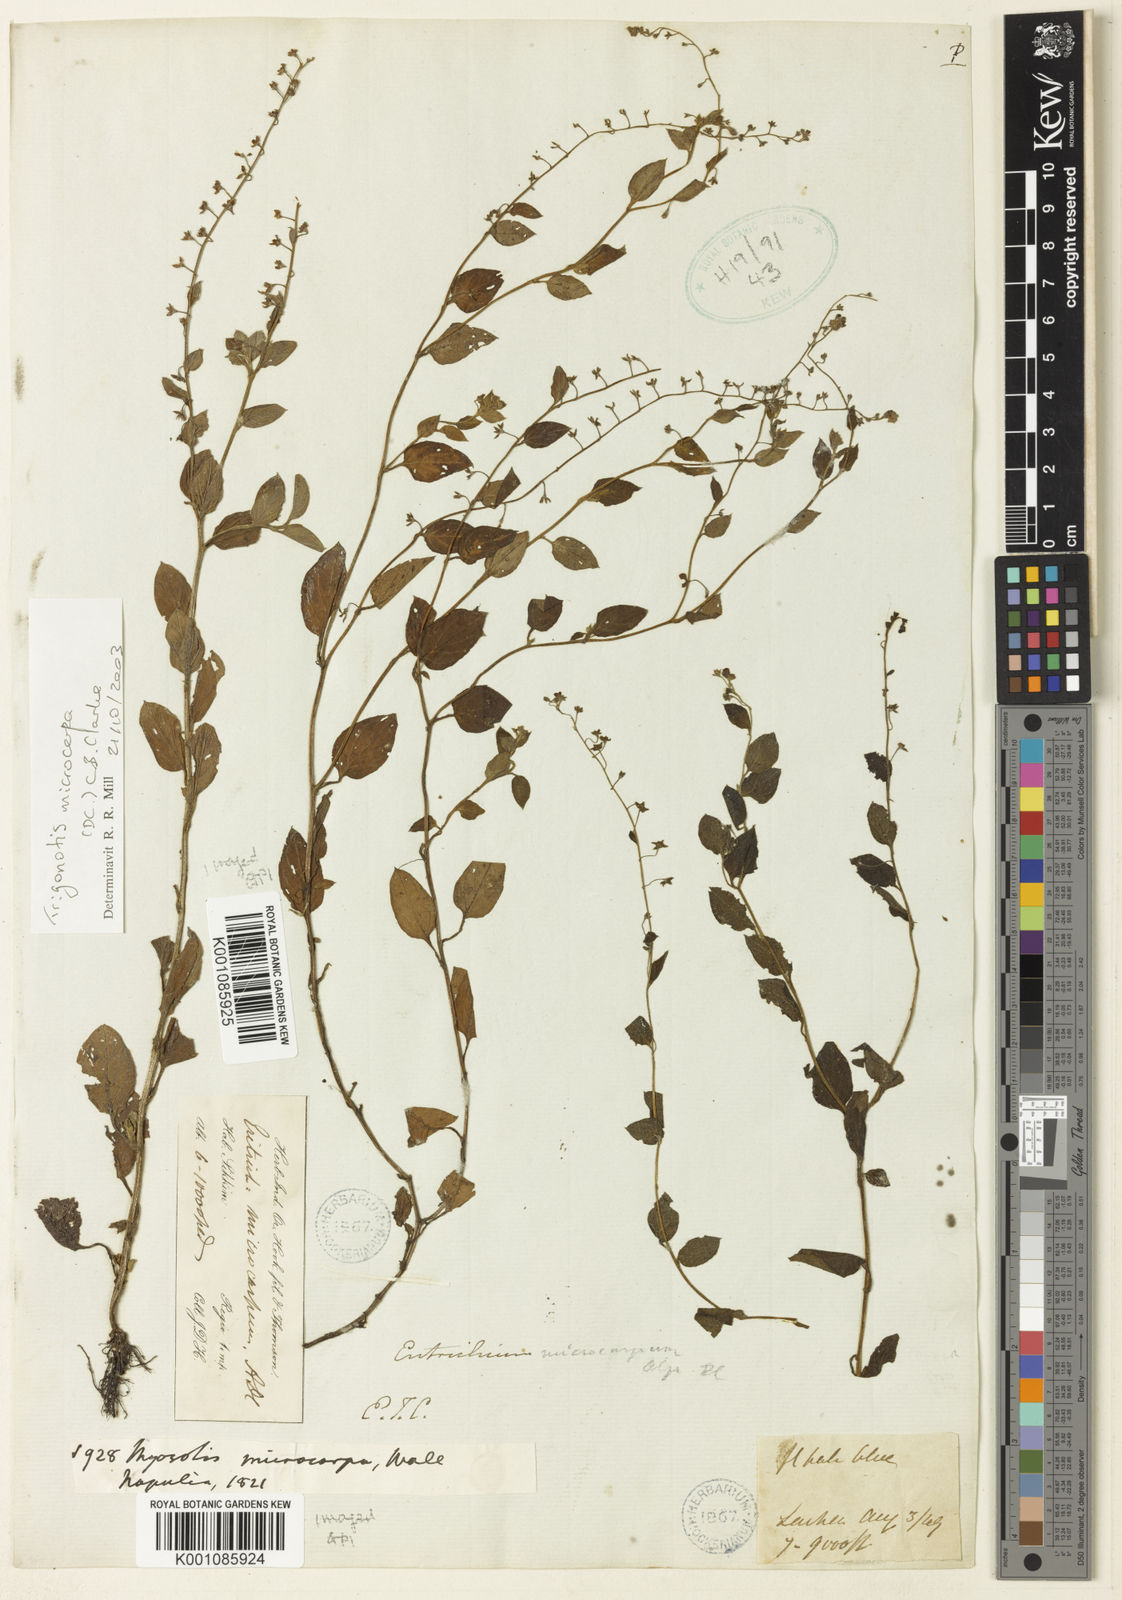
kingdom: Plantae
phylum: Tracheophyta
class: Magnoliopsida
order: Boraginales
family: Boraginaceae
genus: Trigonotis
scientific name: Trigonotis microcarpa
